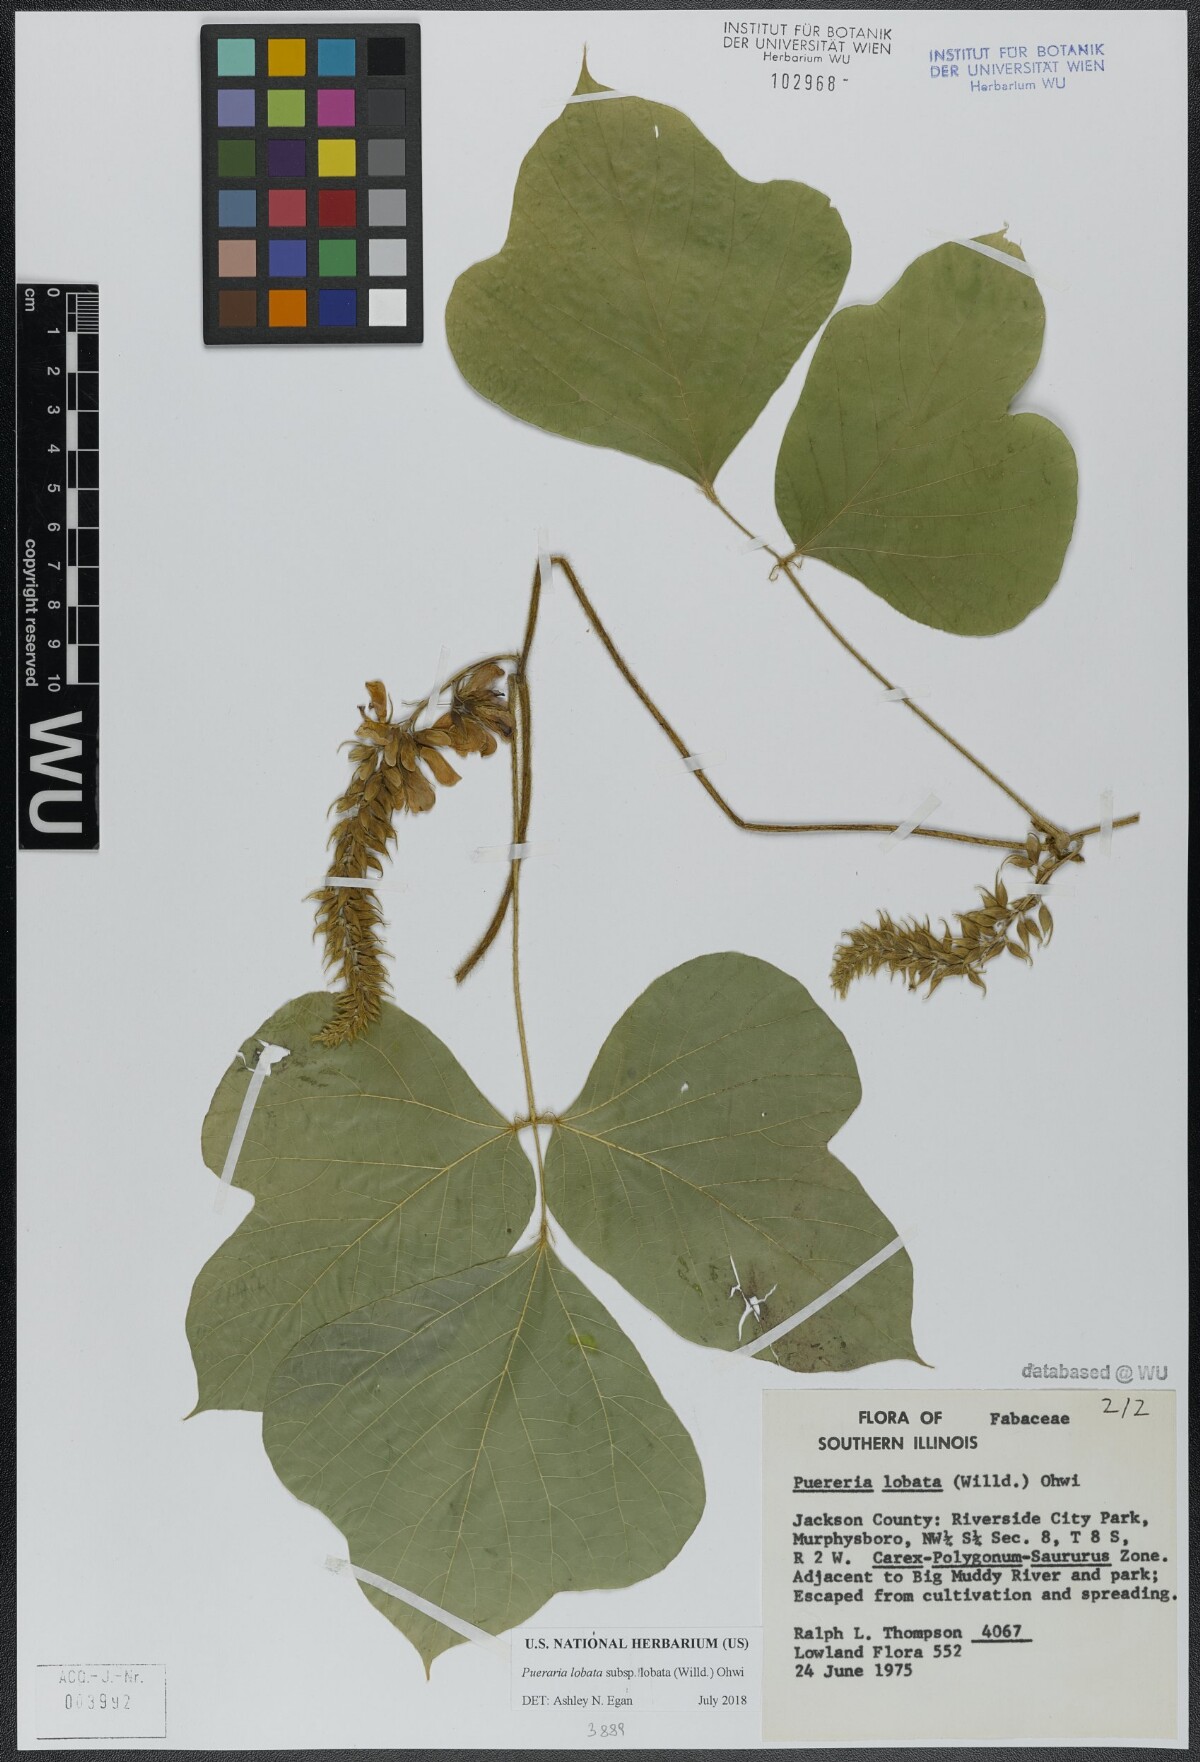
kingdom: Plantae
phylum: Tracheophyta
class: Magnoliopsida
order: Fabales
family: Fabaceae
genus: Pueraria
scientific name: Pueraria montana
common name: Kudzu
